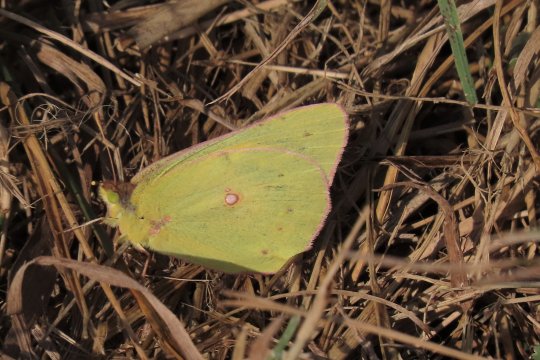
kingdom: Animalia
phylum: Arthropoda
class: Insecta
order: Lepidoptera
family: Pieridae
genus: Colias
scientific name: Colias eurytheme
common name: Orange Sulphur
